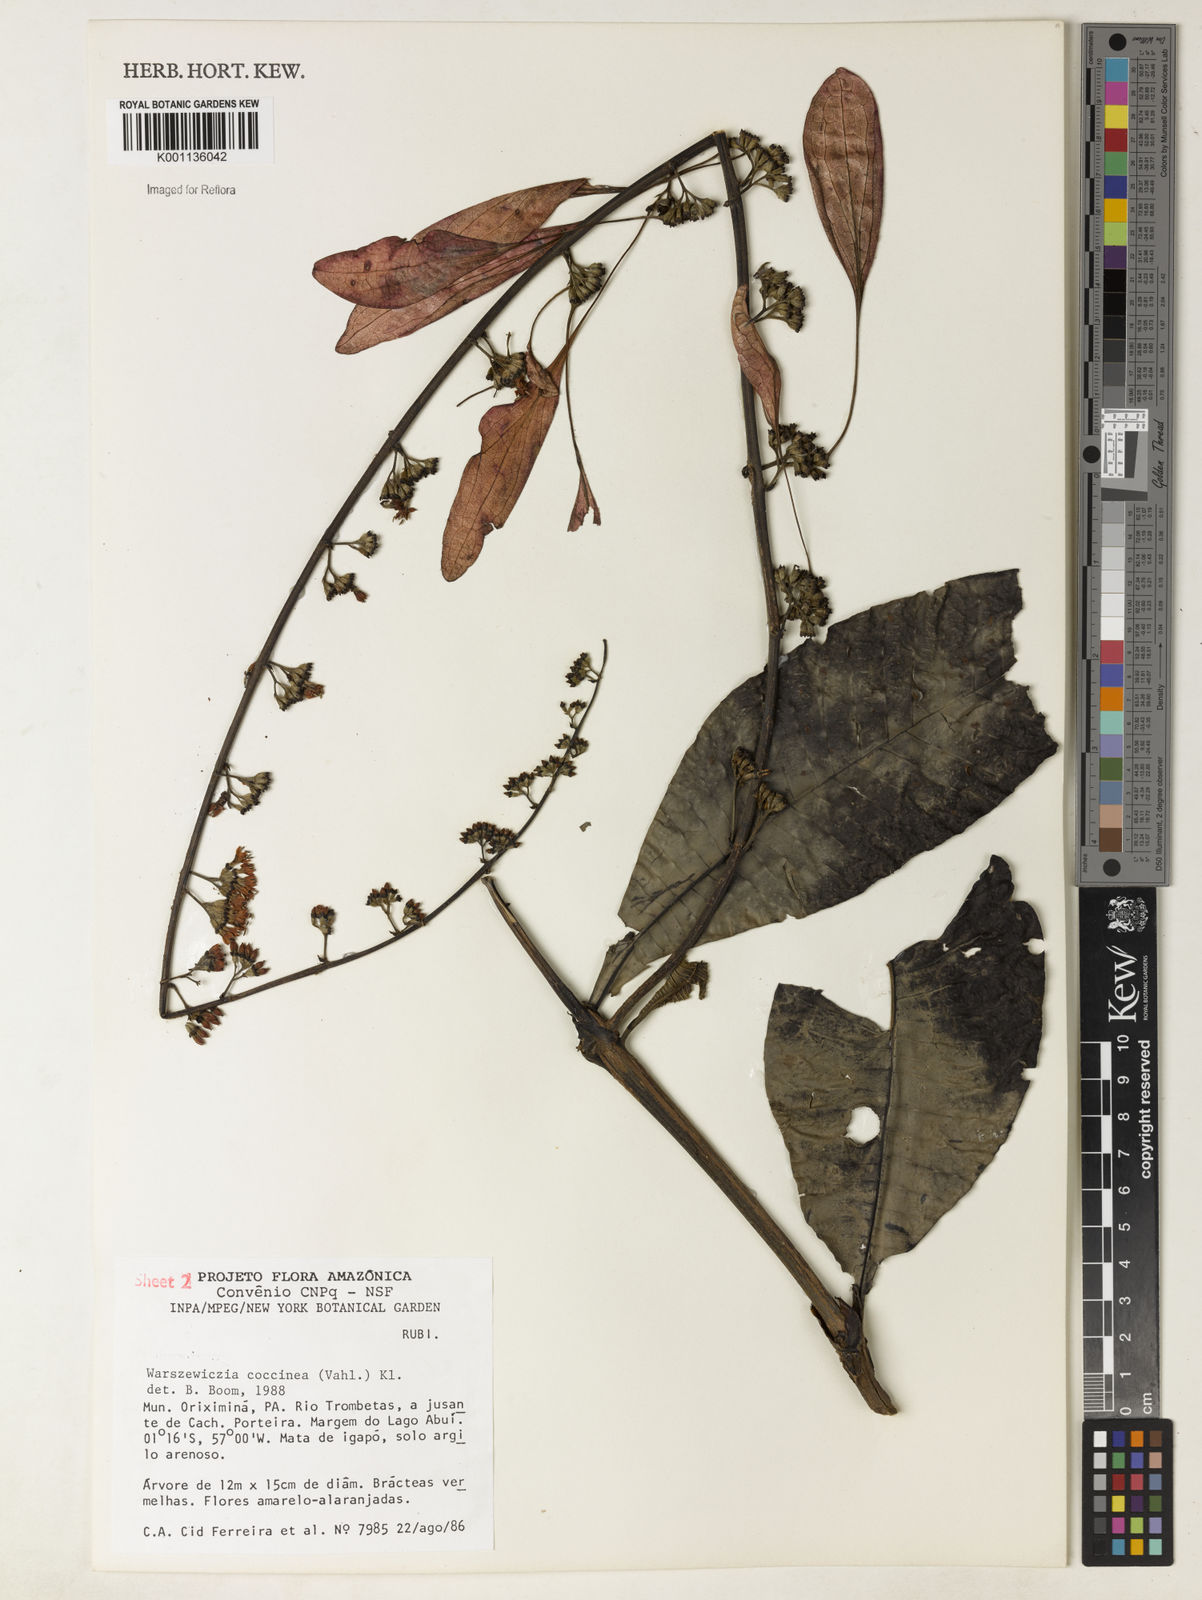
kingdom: Plantae
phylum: Tracheophyta
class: Magnoliopsida
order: Gentianales
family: Rubiaceae
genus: Warszewiczia
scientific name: Warszewiczia coccinea
